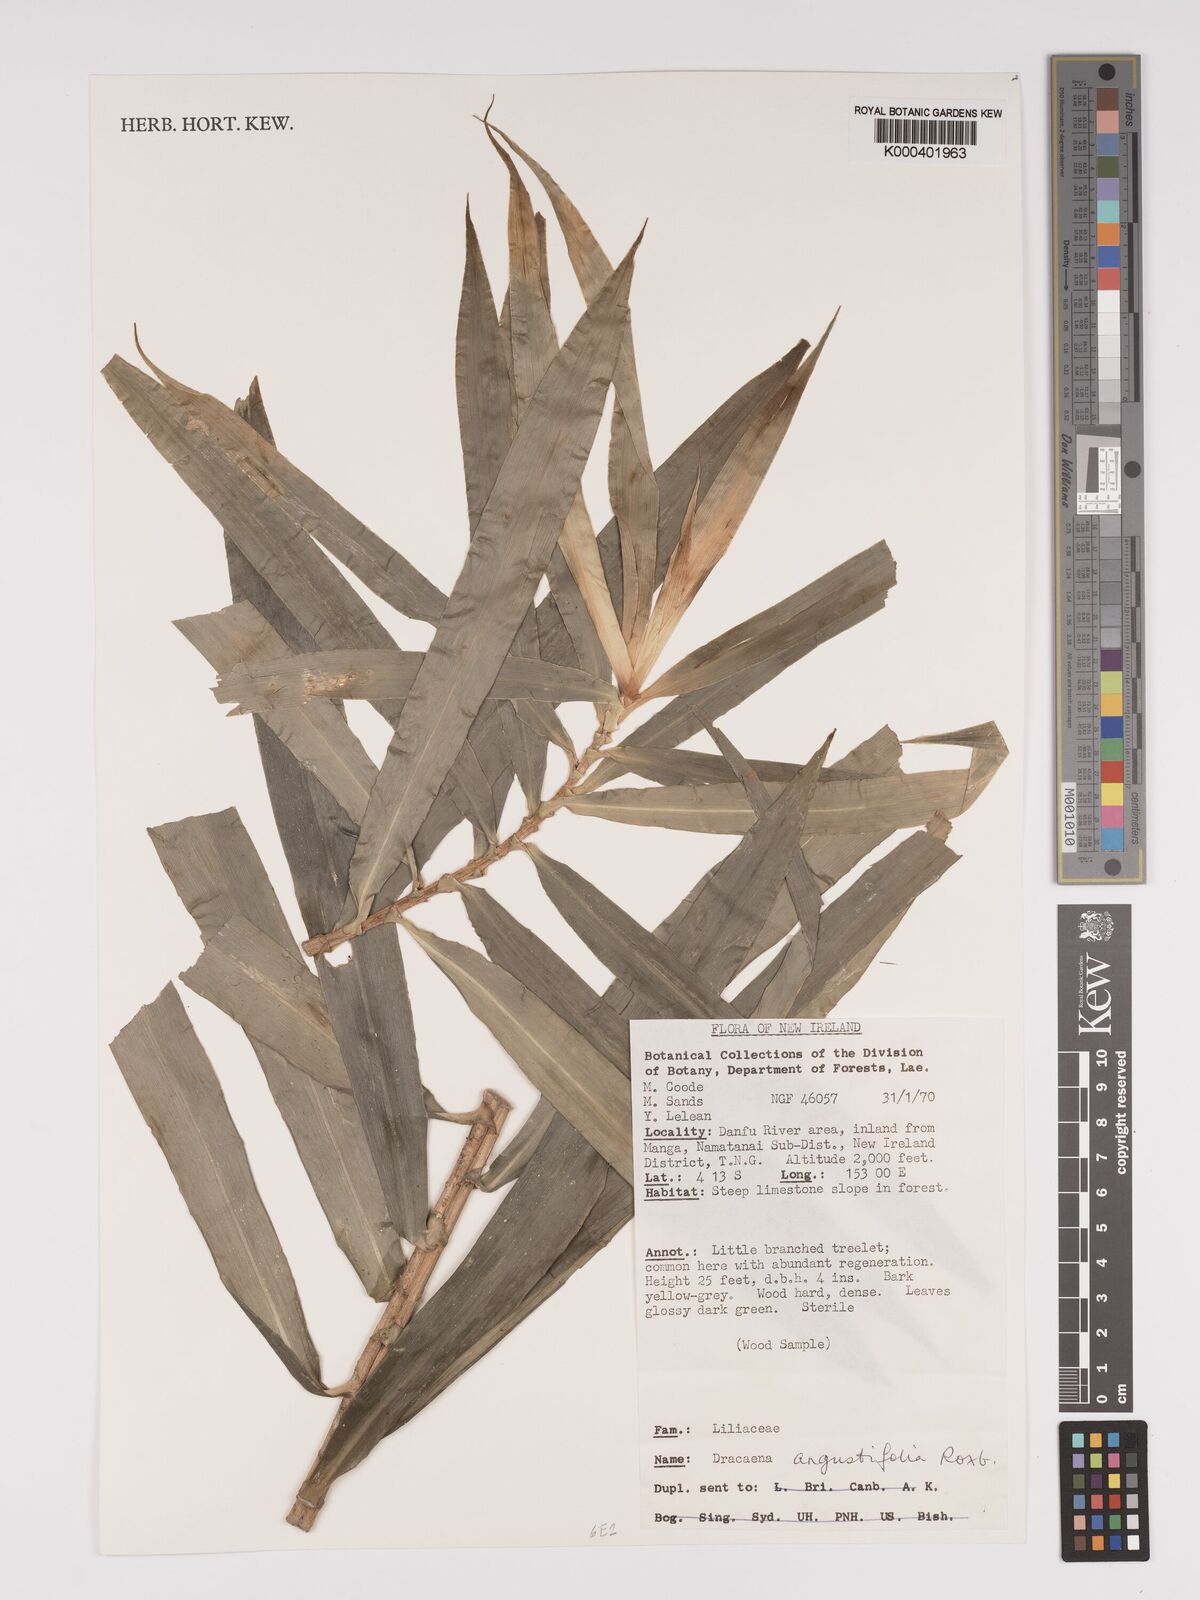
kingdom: Plantae
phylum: Tracheophyta
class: Liliopsida
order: Asparagales
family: Asparagaceae
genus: Dracaena
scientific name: Dracaena angustifolia
